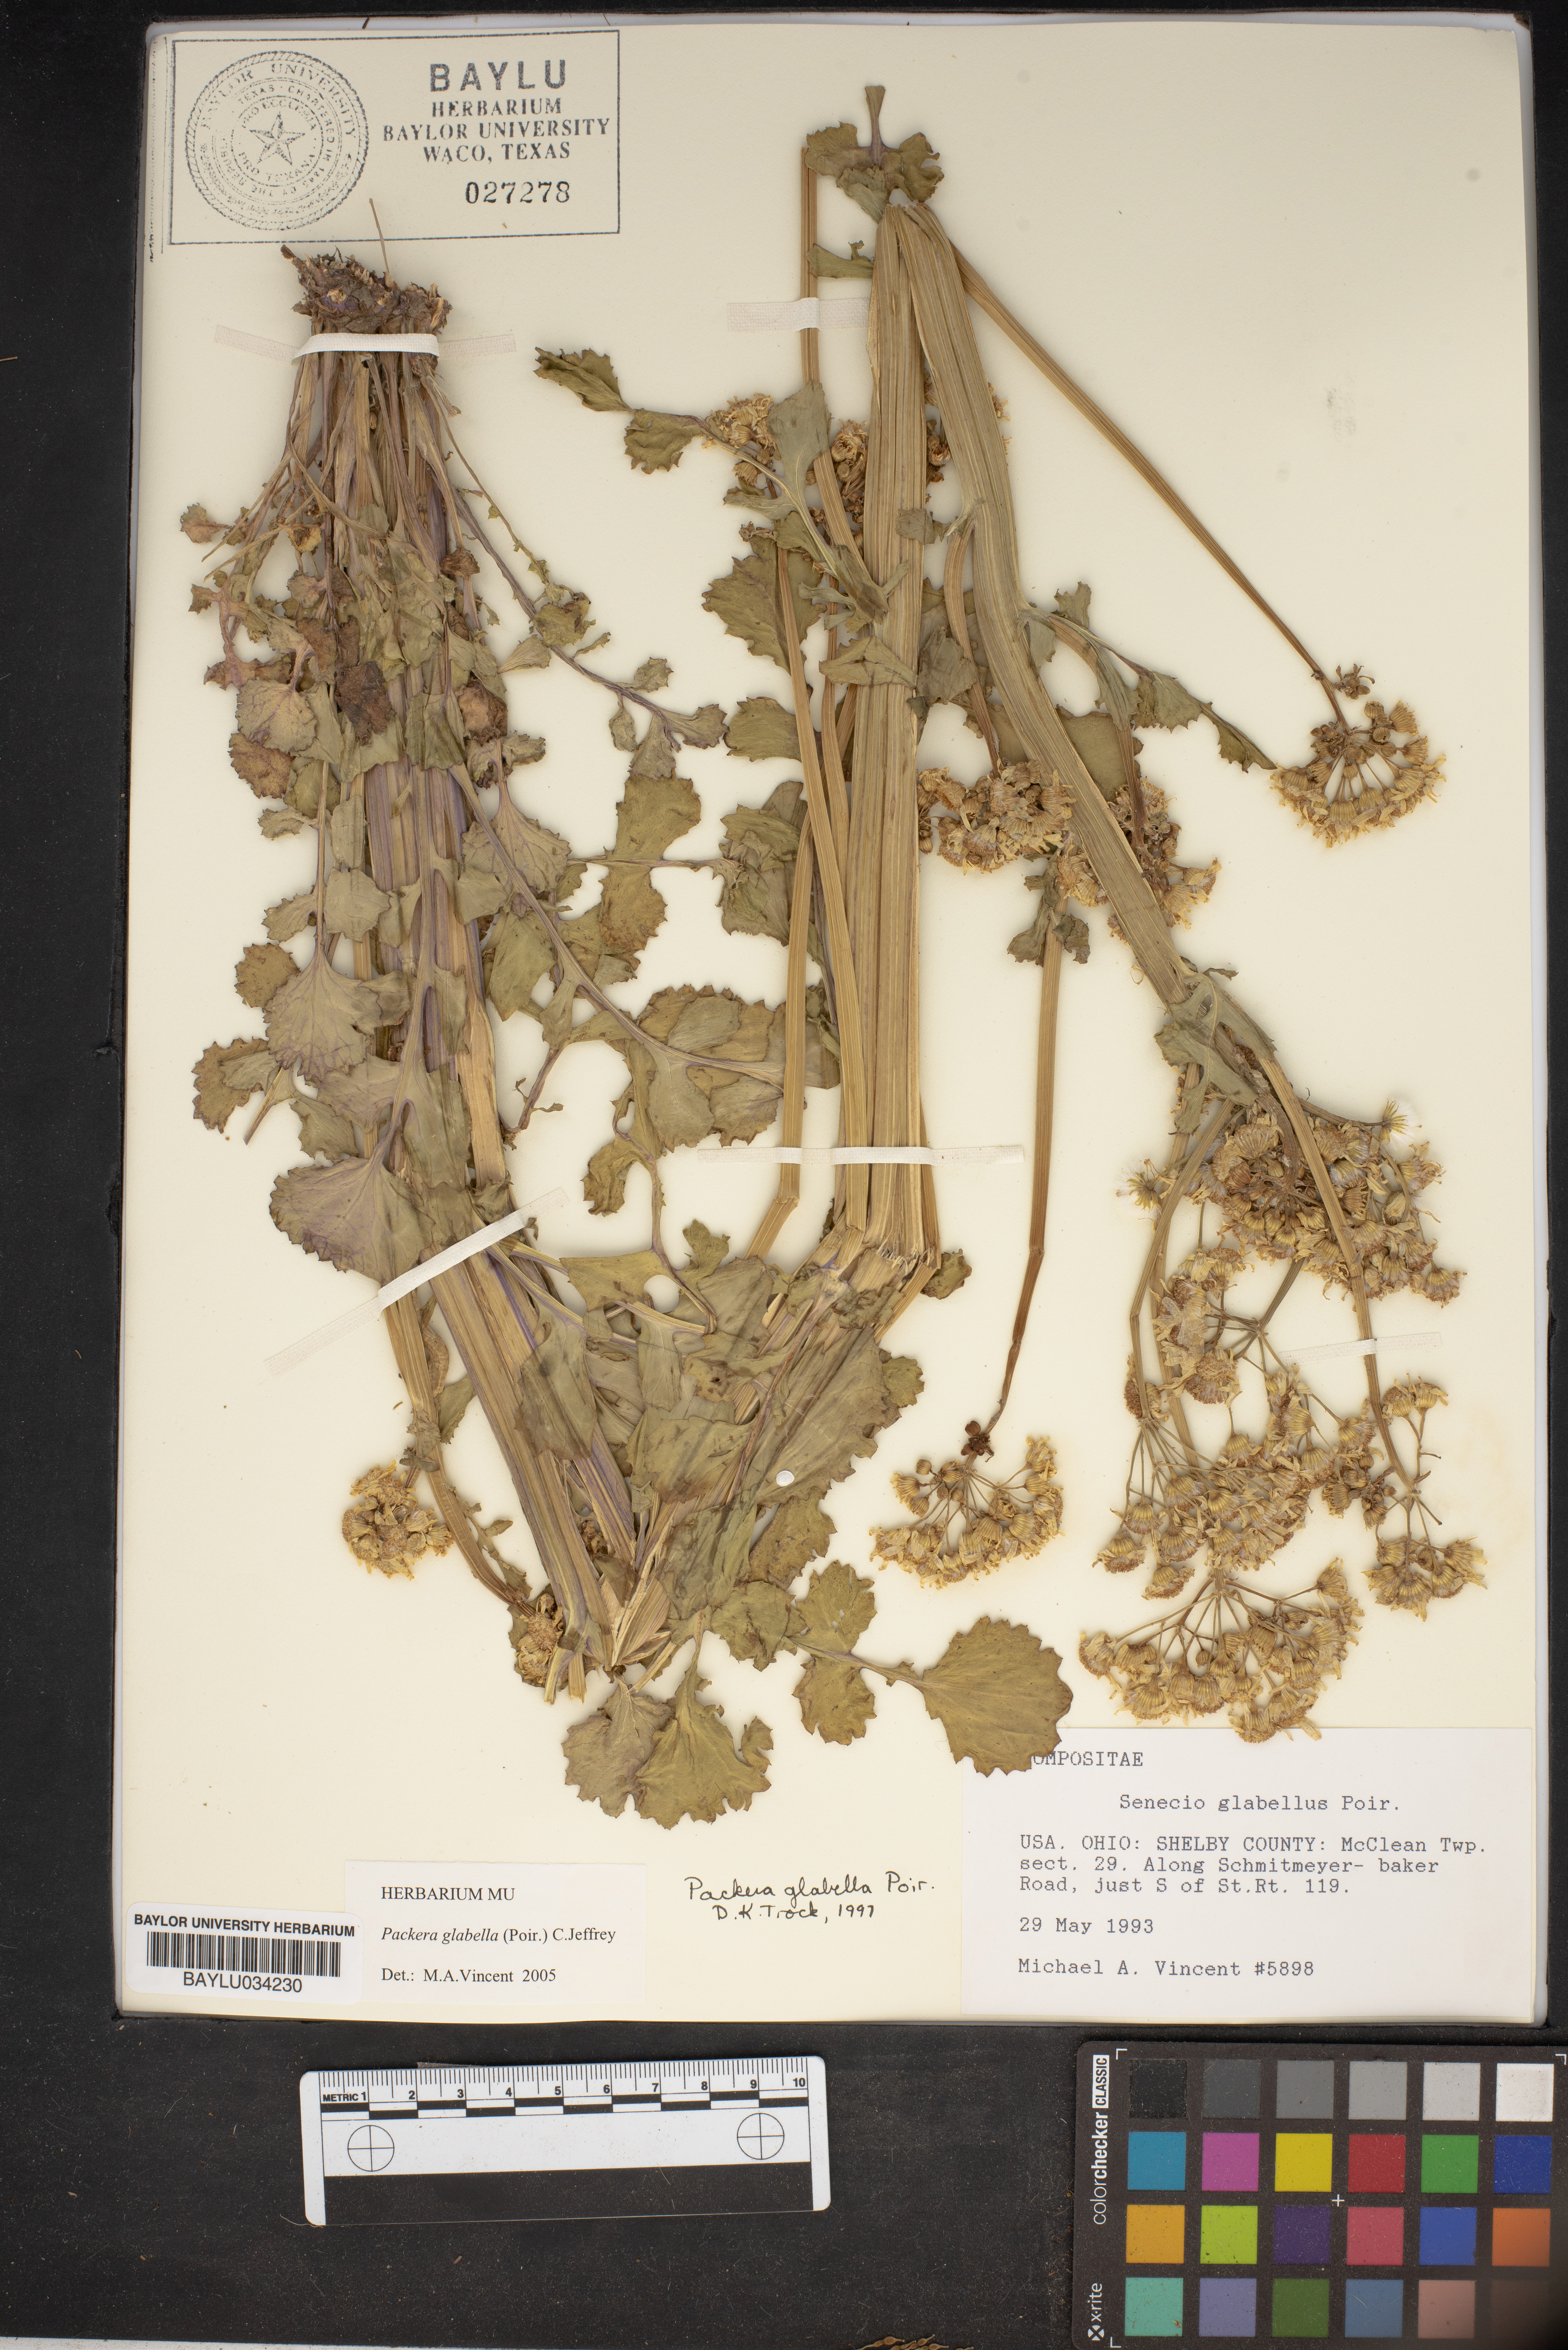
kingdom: Plantae
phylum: Tracheophyta
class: Magnoliopsida
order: Asterales
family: Asteraceae
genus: Packera
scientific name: Packera glabella
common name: Butterweed
